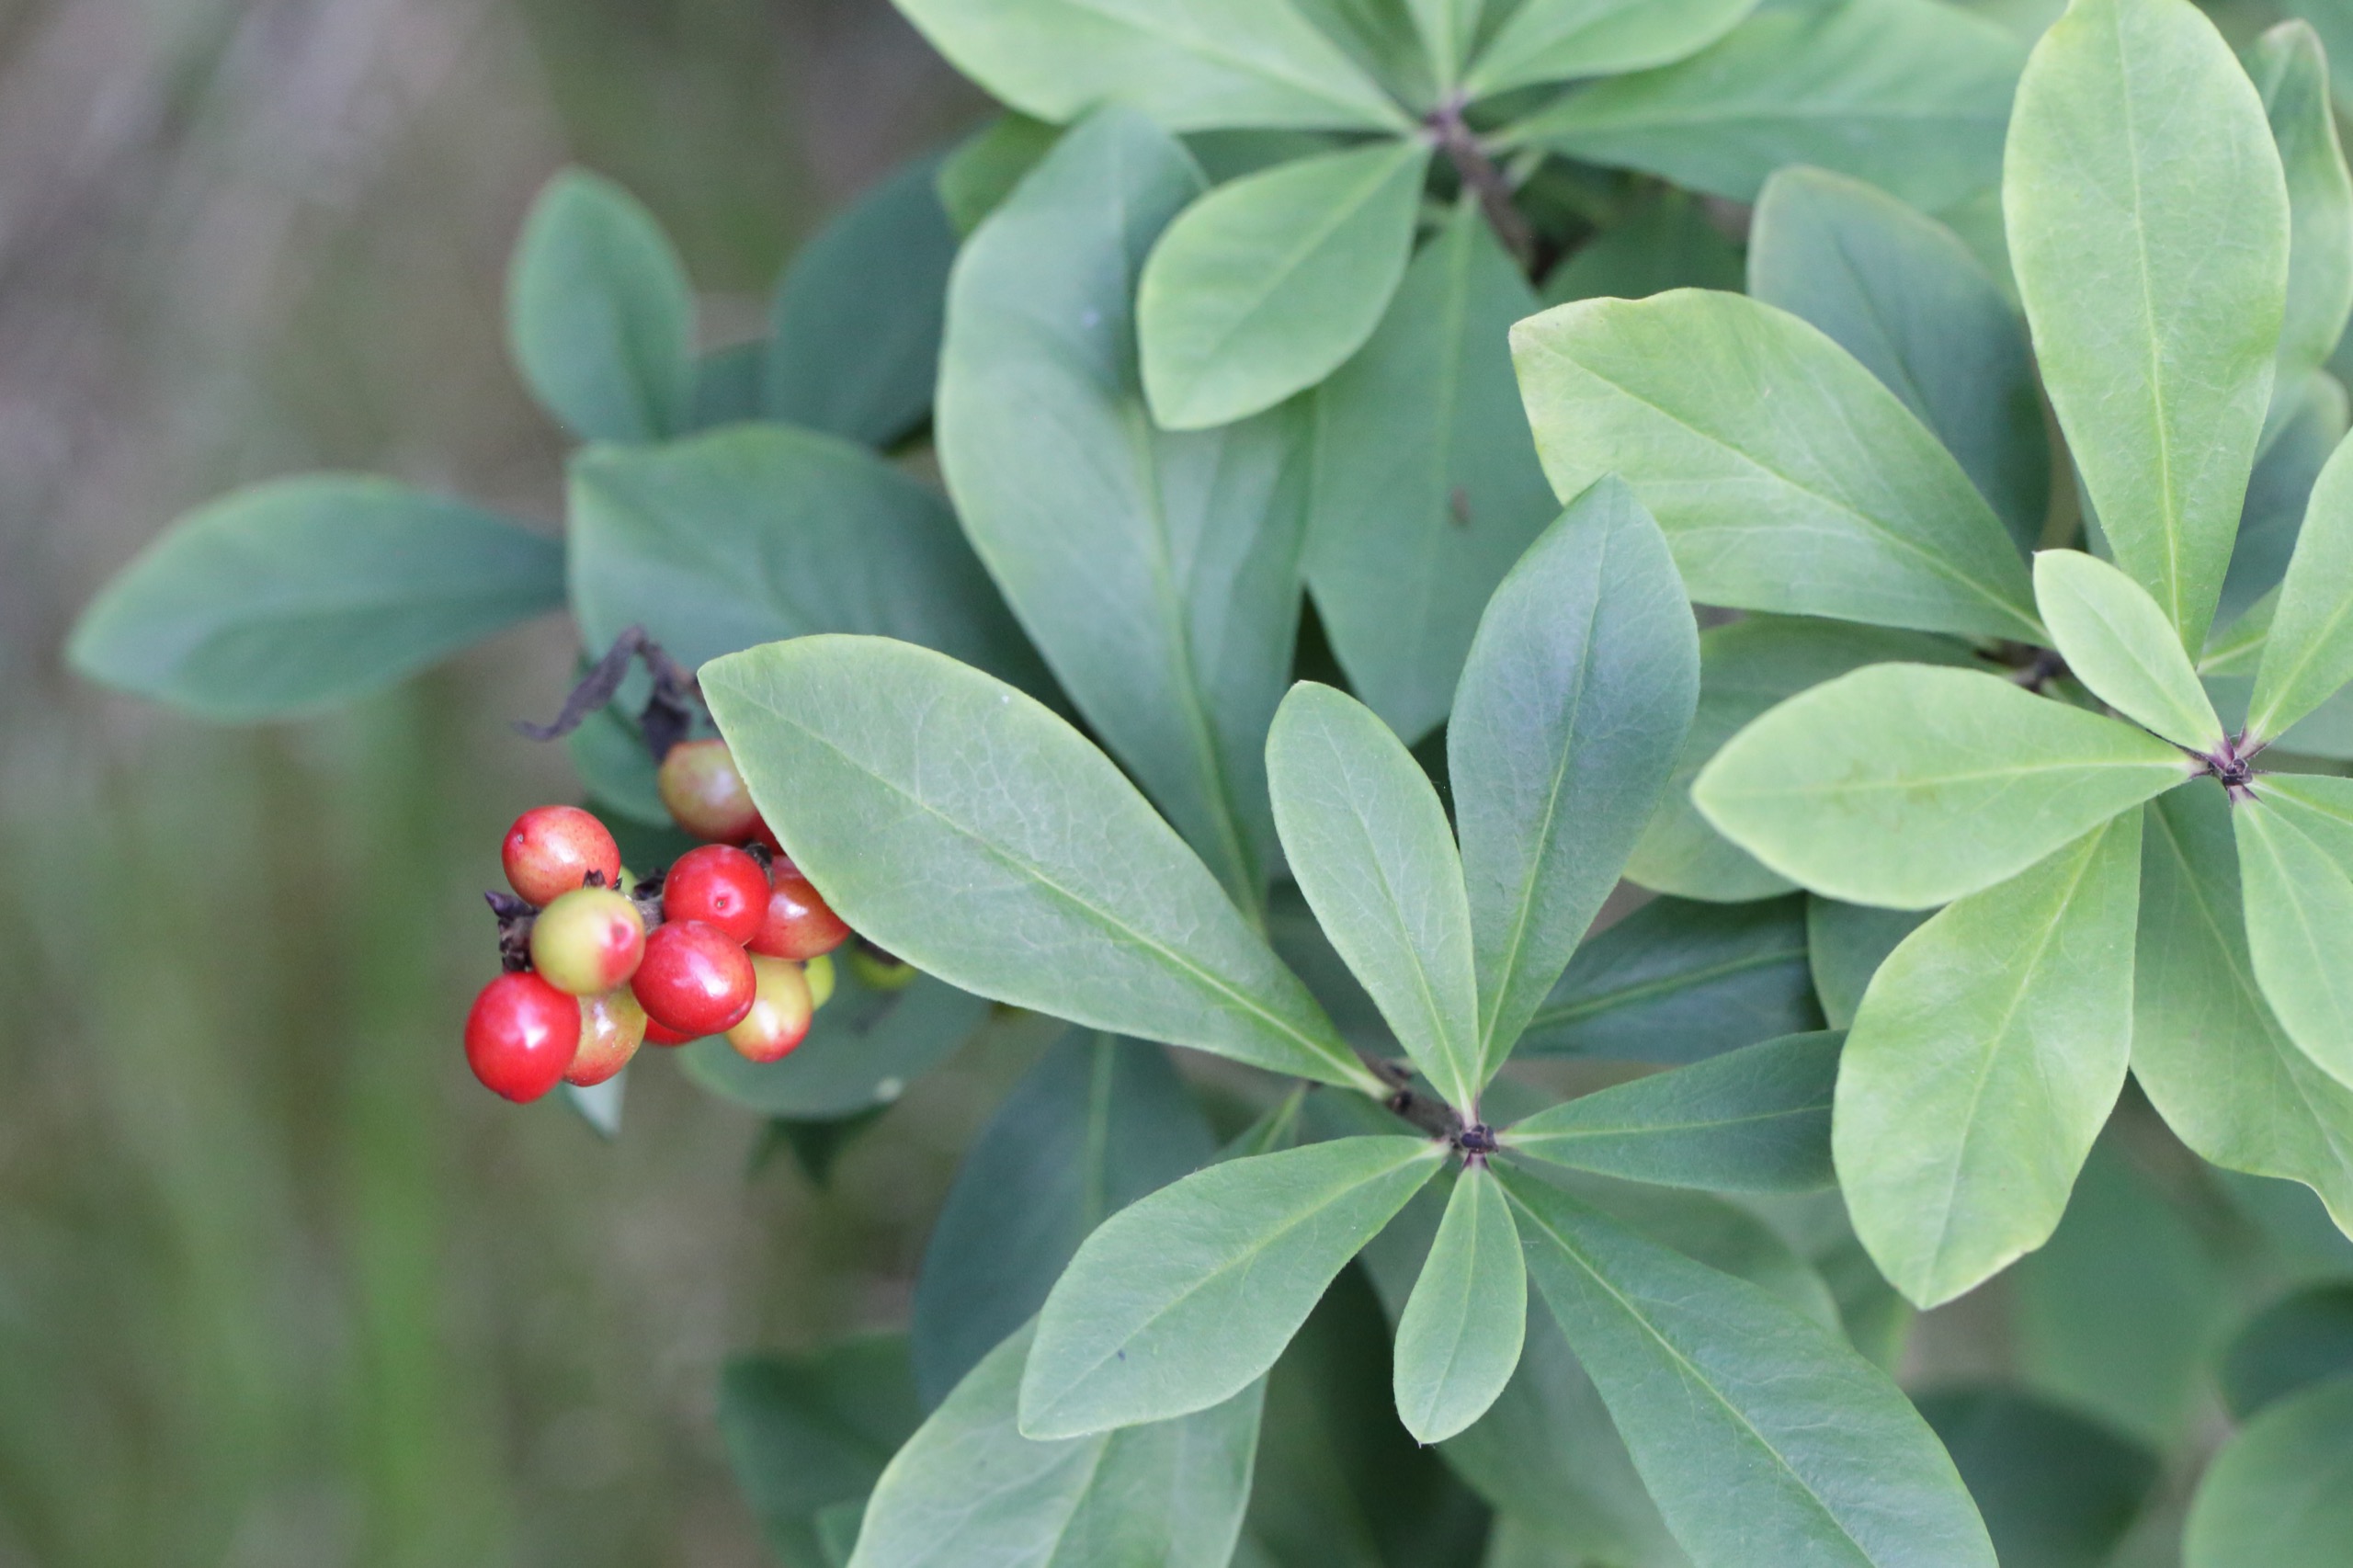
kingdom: Plantae
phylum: Tracheophyta
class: Magnoliopsida
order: Malvales
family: Thymelaeaceae
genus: Daphne
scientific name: Daphne mezereum
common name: Pebertræ
